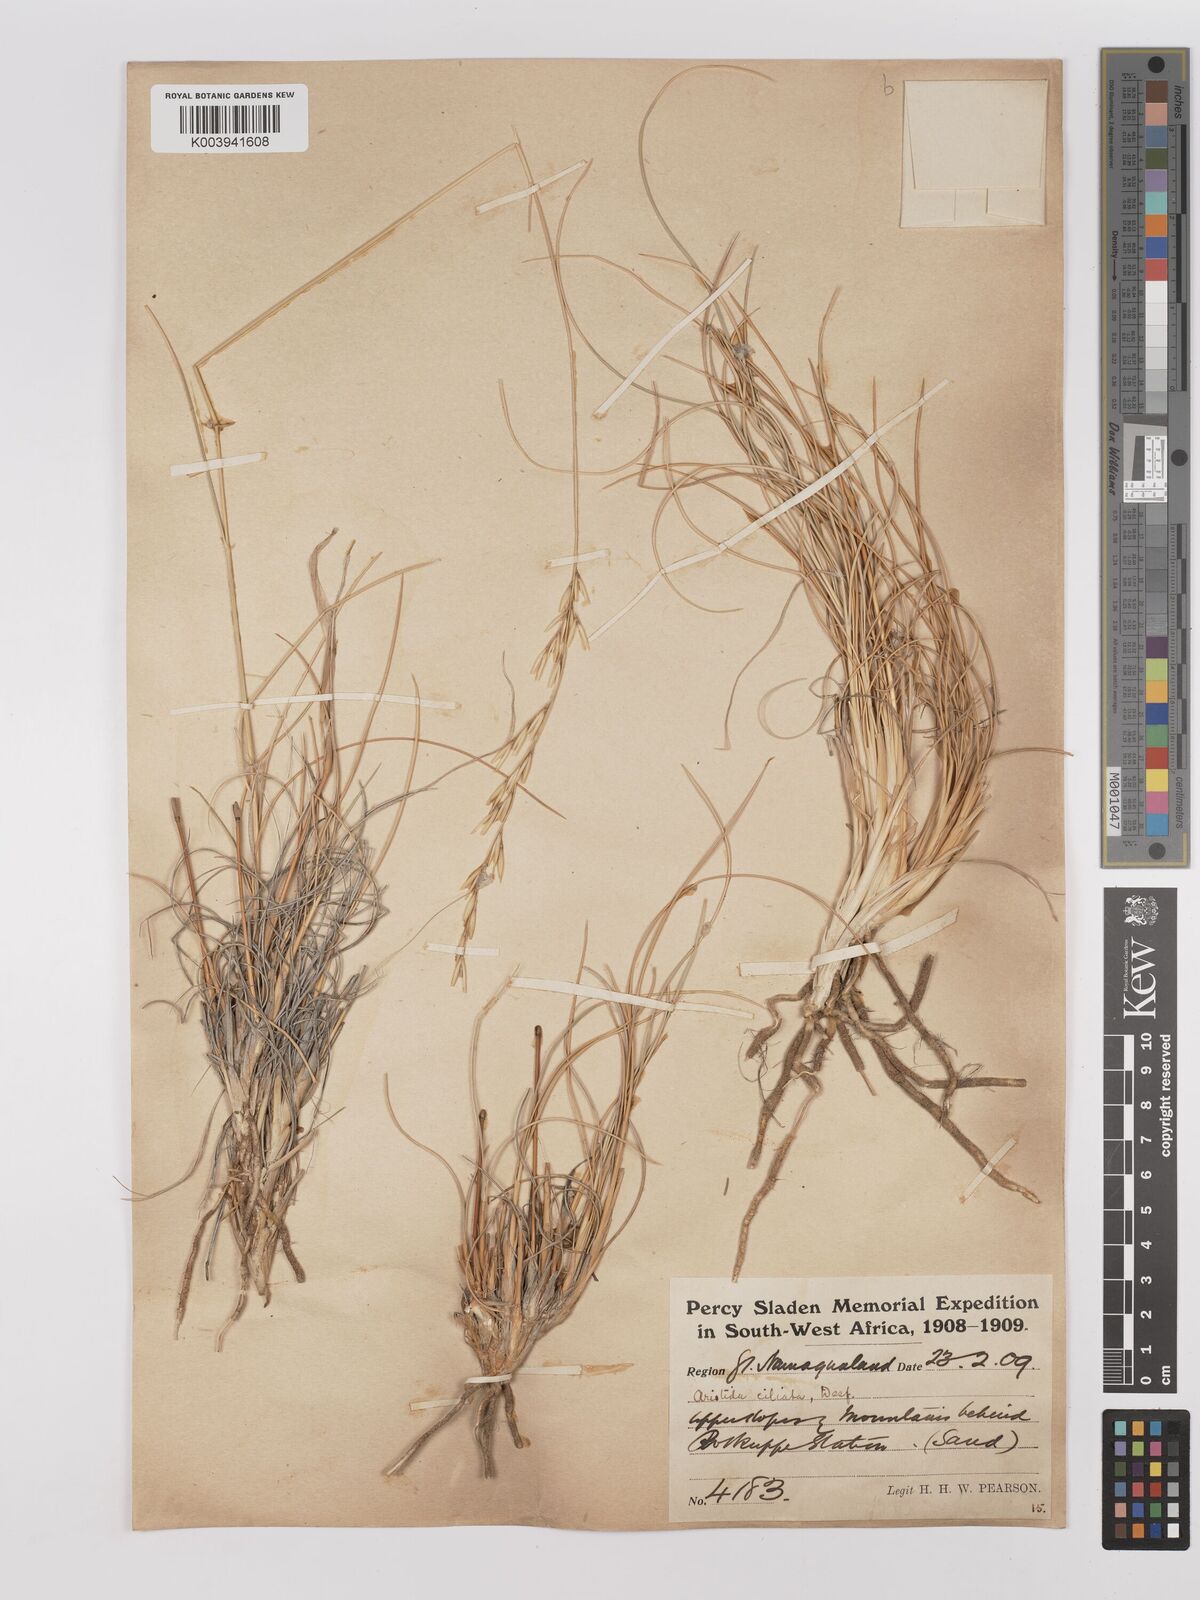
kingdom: Plantae
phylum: Tracheophyta
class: Liliopsida
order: Poales
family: Poaceae
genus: Stipagrostis
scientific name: Stipagrostis ciliata
